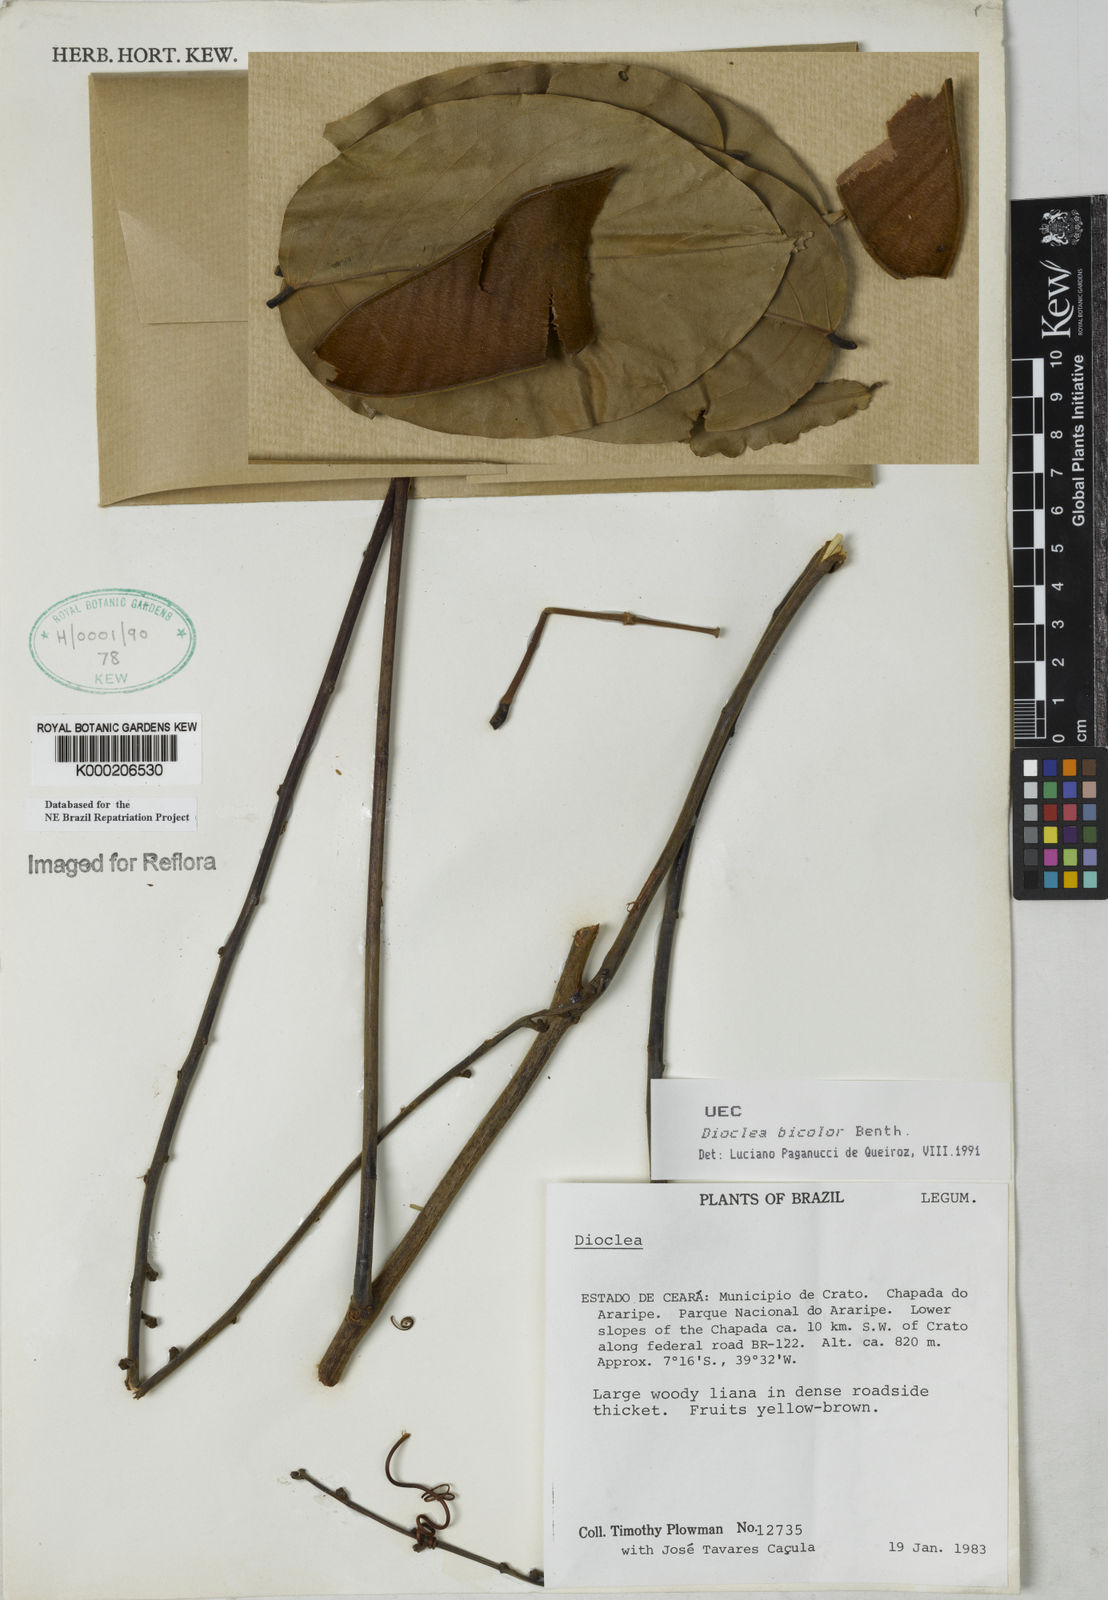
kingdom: Plantae
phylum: Tracheophyta
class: Magnoliopsida
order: Fabales
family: Fabaceae
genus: Macropsychanthus
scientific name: Macropsychanthus bicolor
